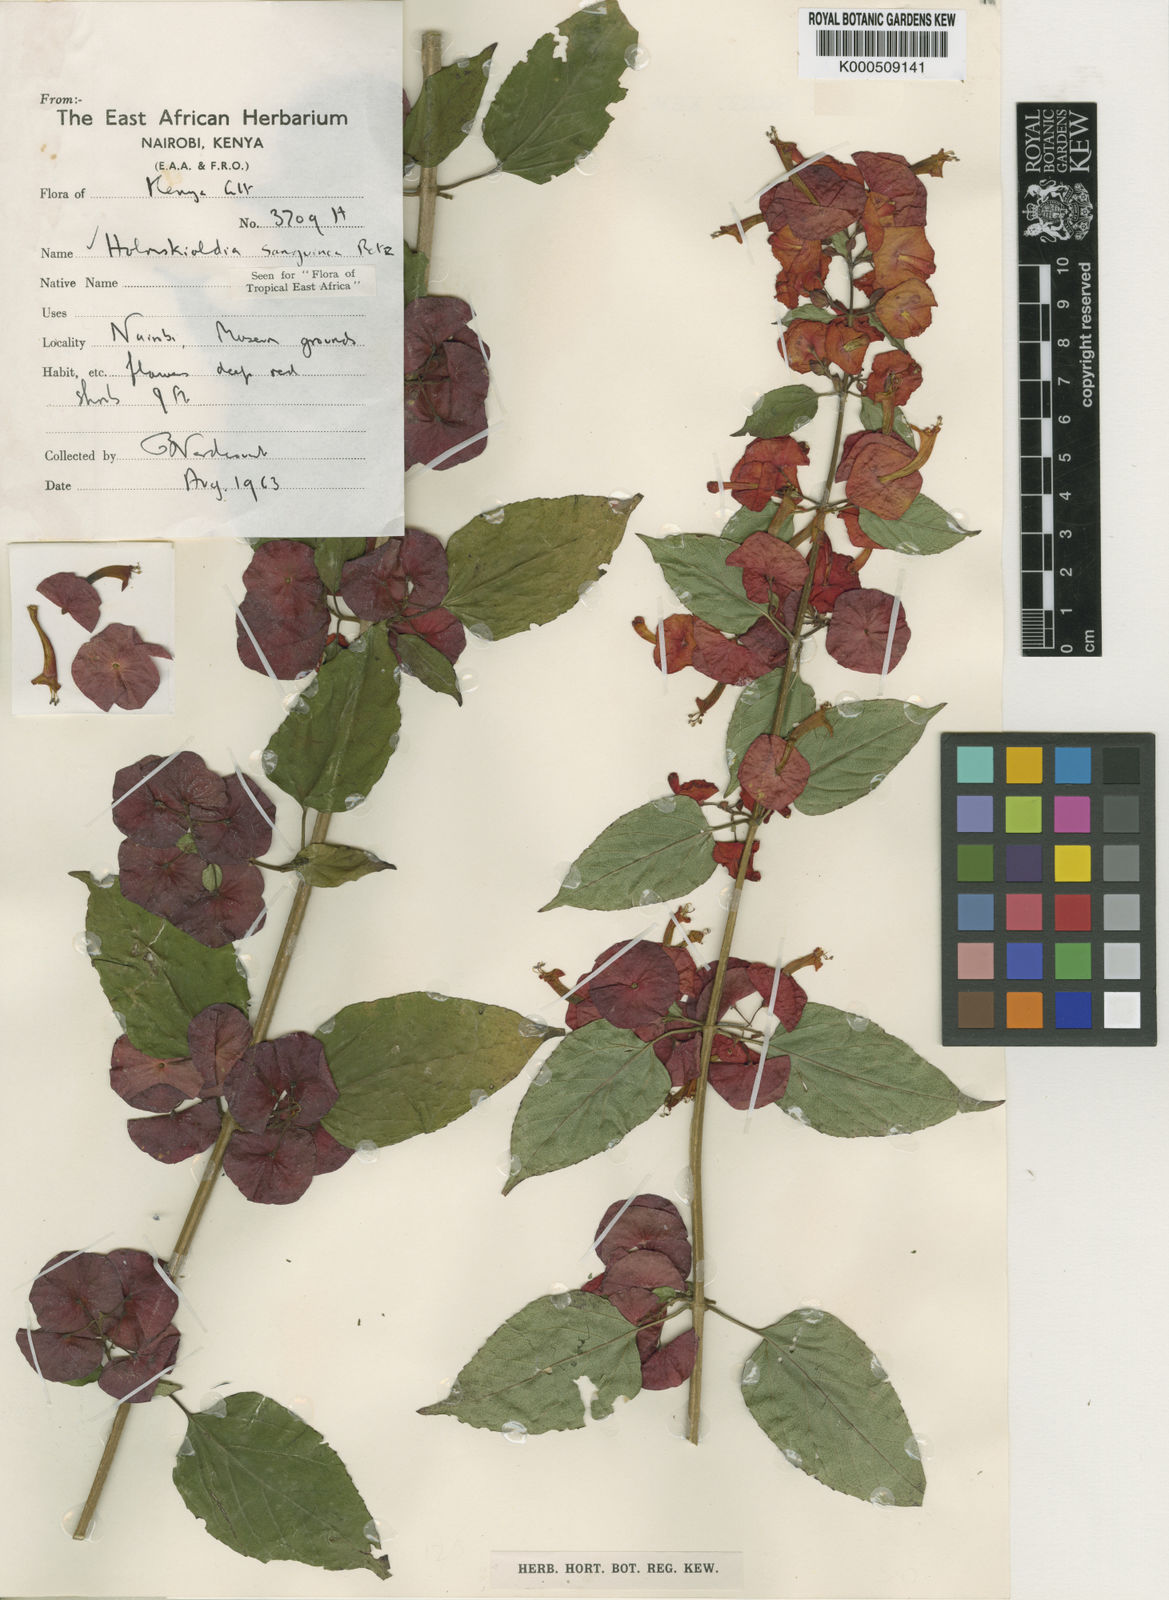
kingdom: Plantae
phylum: Tracheophyta
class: Magnoliopsida
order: Lamiales
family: Lamiaceae
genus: Holmskioldia
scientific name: Holmskioldia sanguinea
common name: Chinese hatplant
